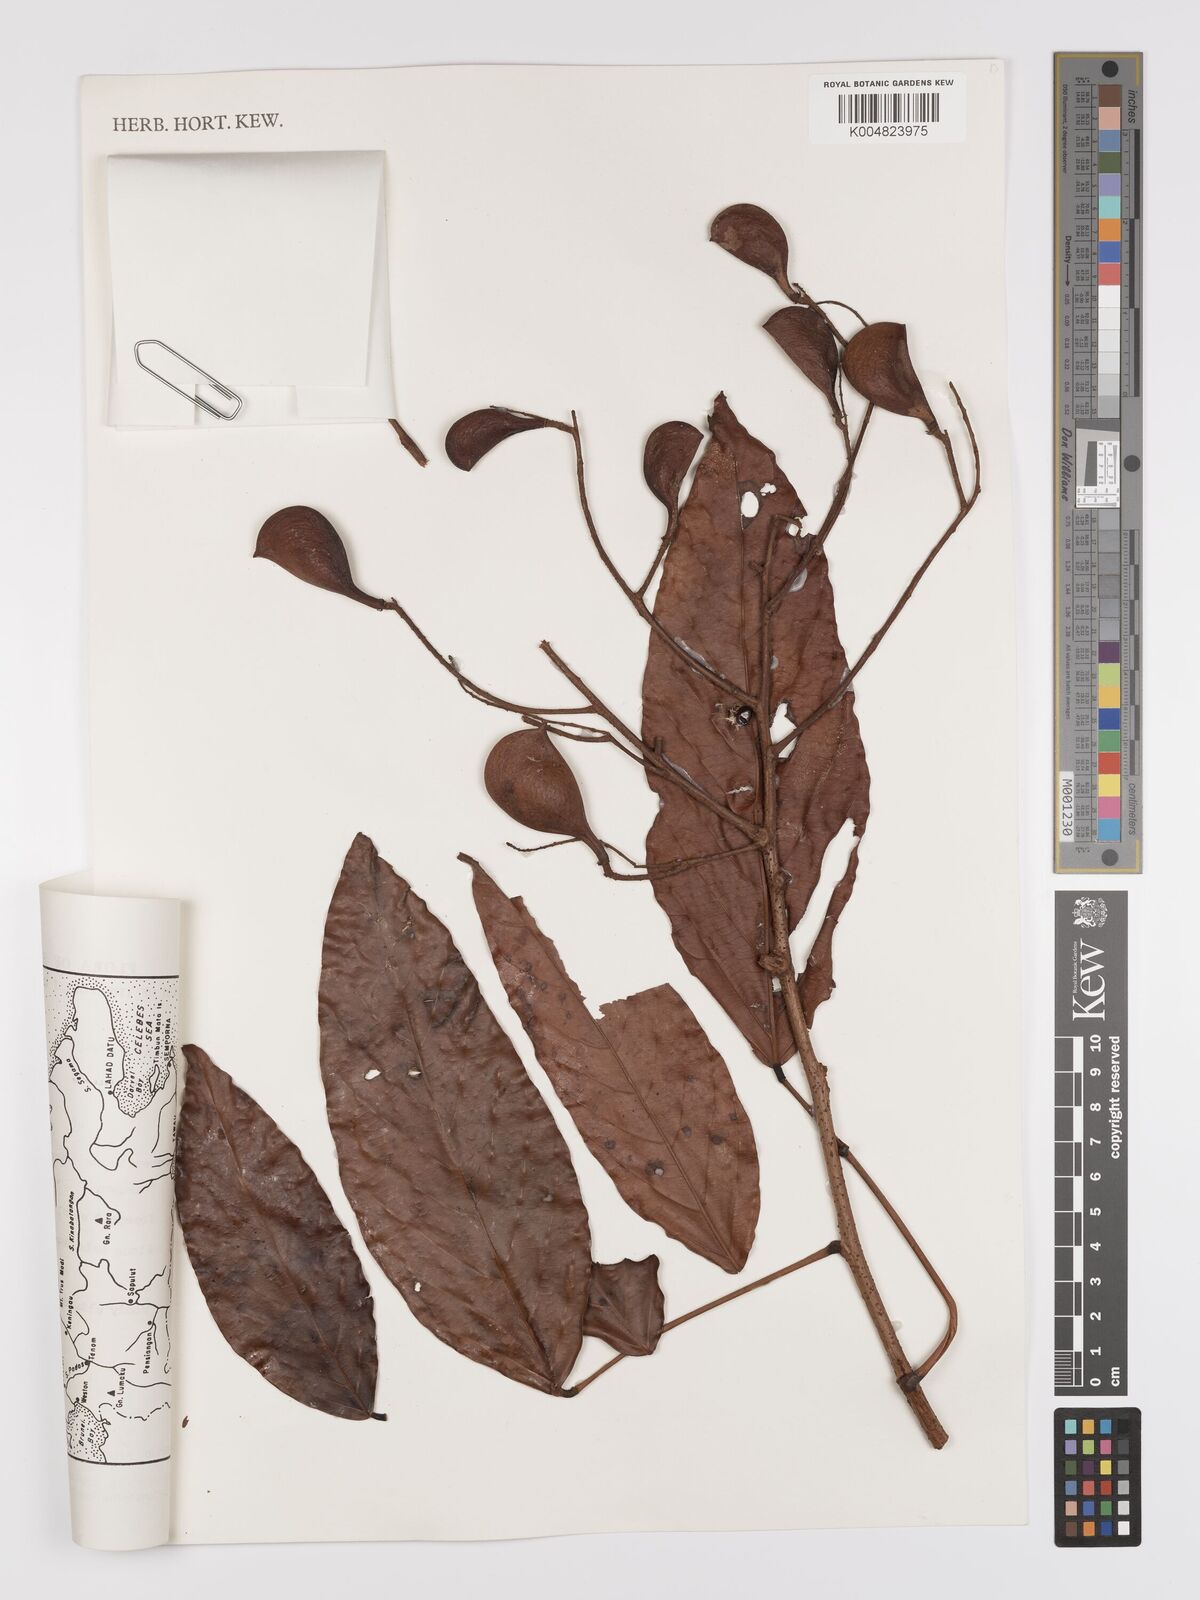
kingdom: Plantae
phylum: Tracheophyta
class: Magnoliopsida
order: Oxalidales
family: Connaraceae
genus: Connarus
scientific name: Connarus grandis
